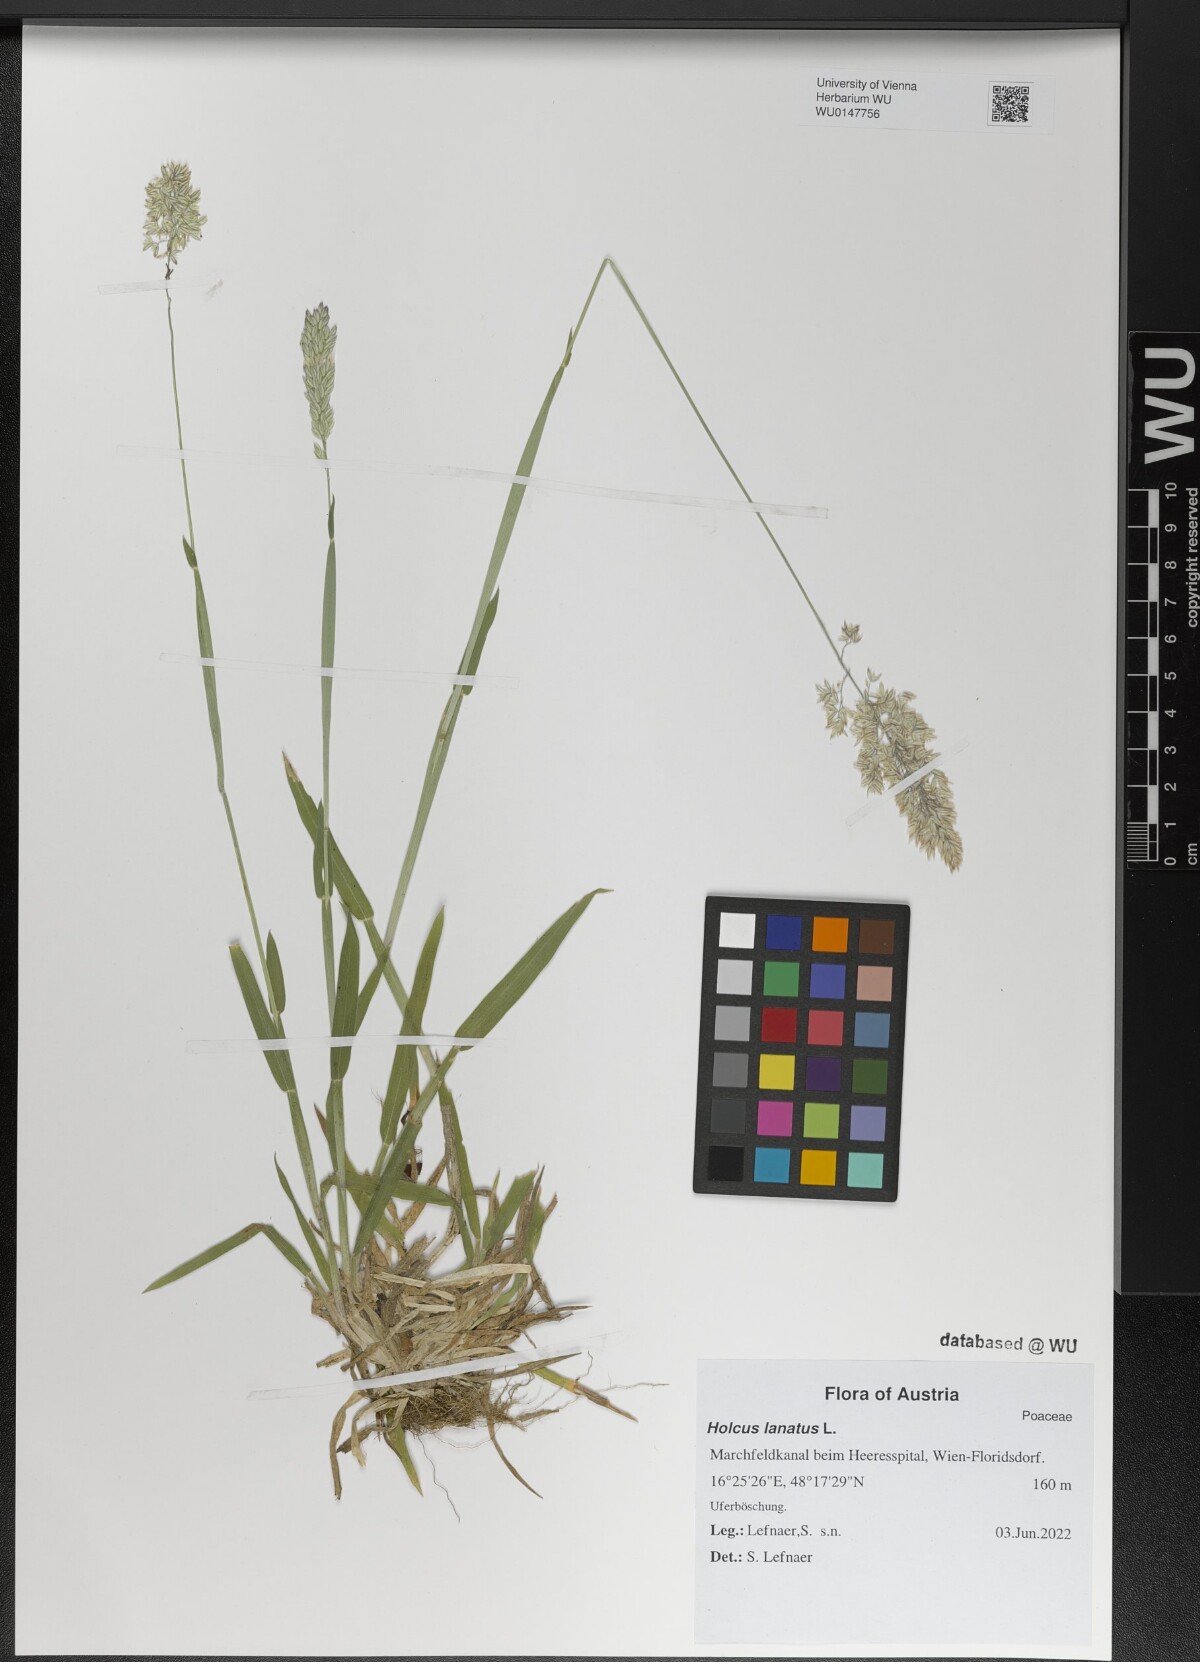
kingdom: Plantae
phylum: Tracheophyta
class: Liliopsida
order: Poales
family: Poaceae
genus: Holcus
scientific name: Holcus lanatus
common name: Yorkshire-fog
